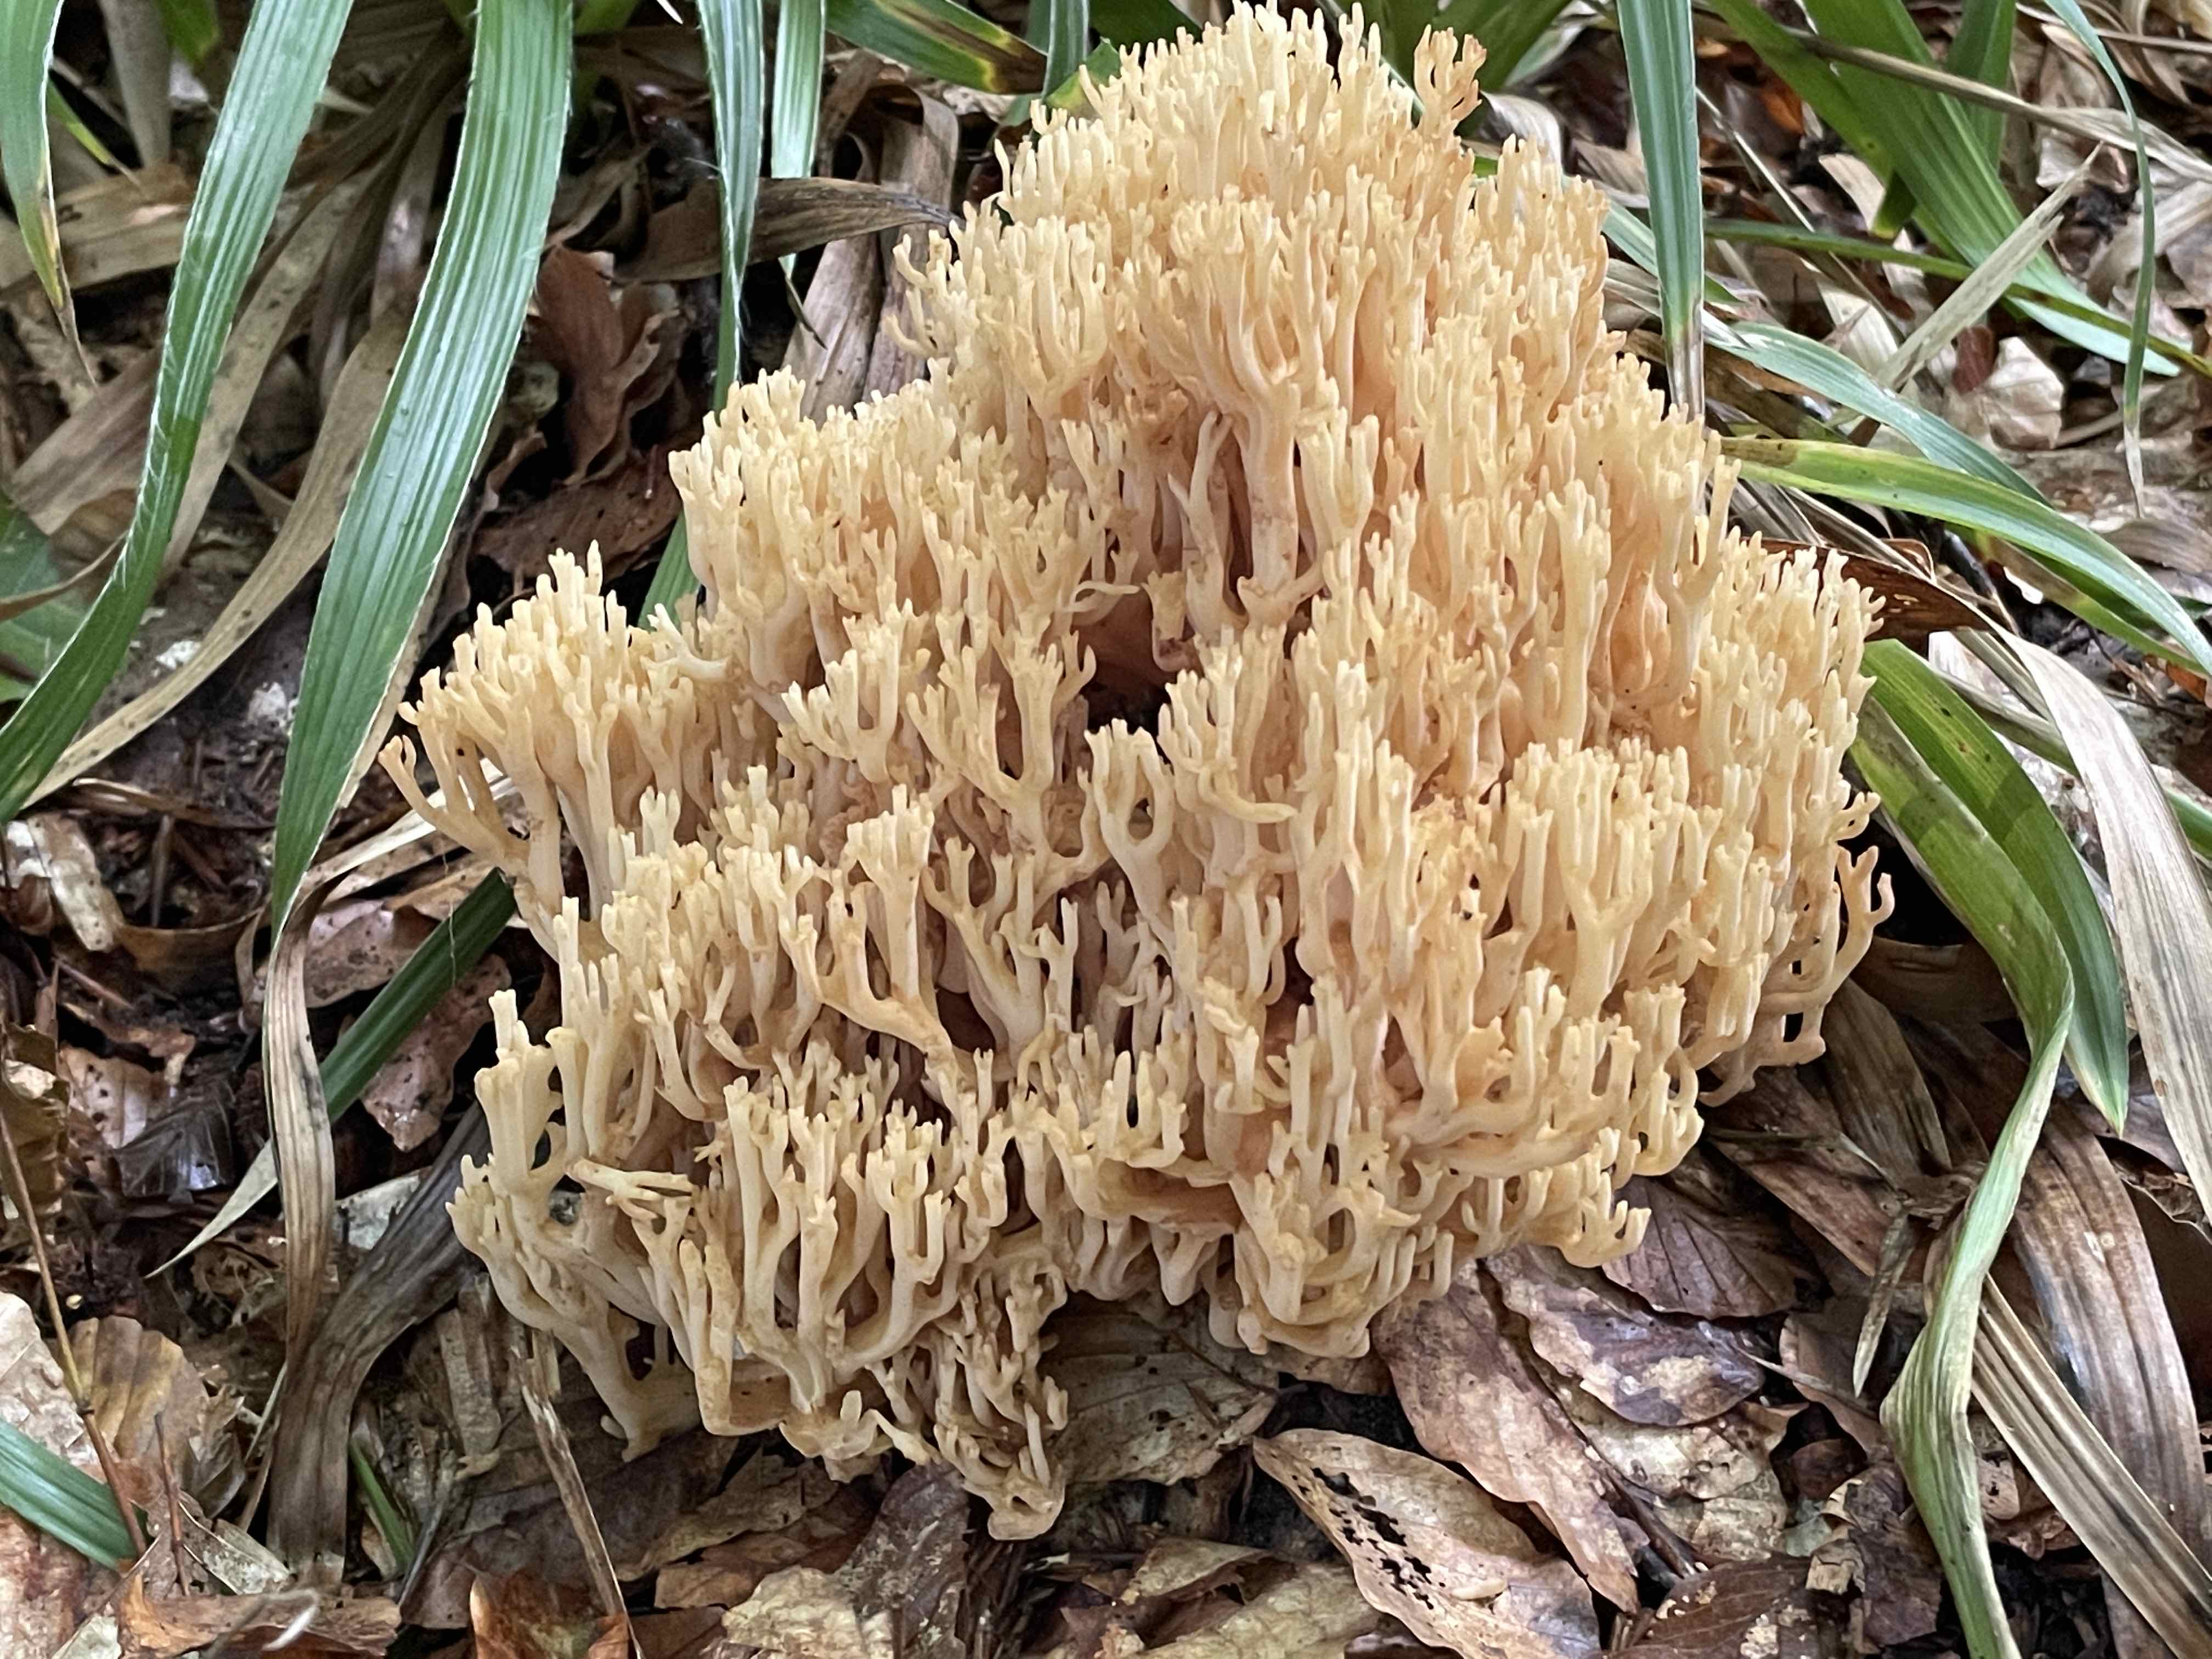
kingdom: Fungi
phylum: Basidiomycota
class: Agaricomycetes
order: Gomphales
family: Gomphaceae
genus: Ramaria
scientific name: Ramaria flavescens
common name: stor koralsvamp
